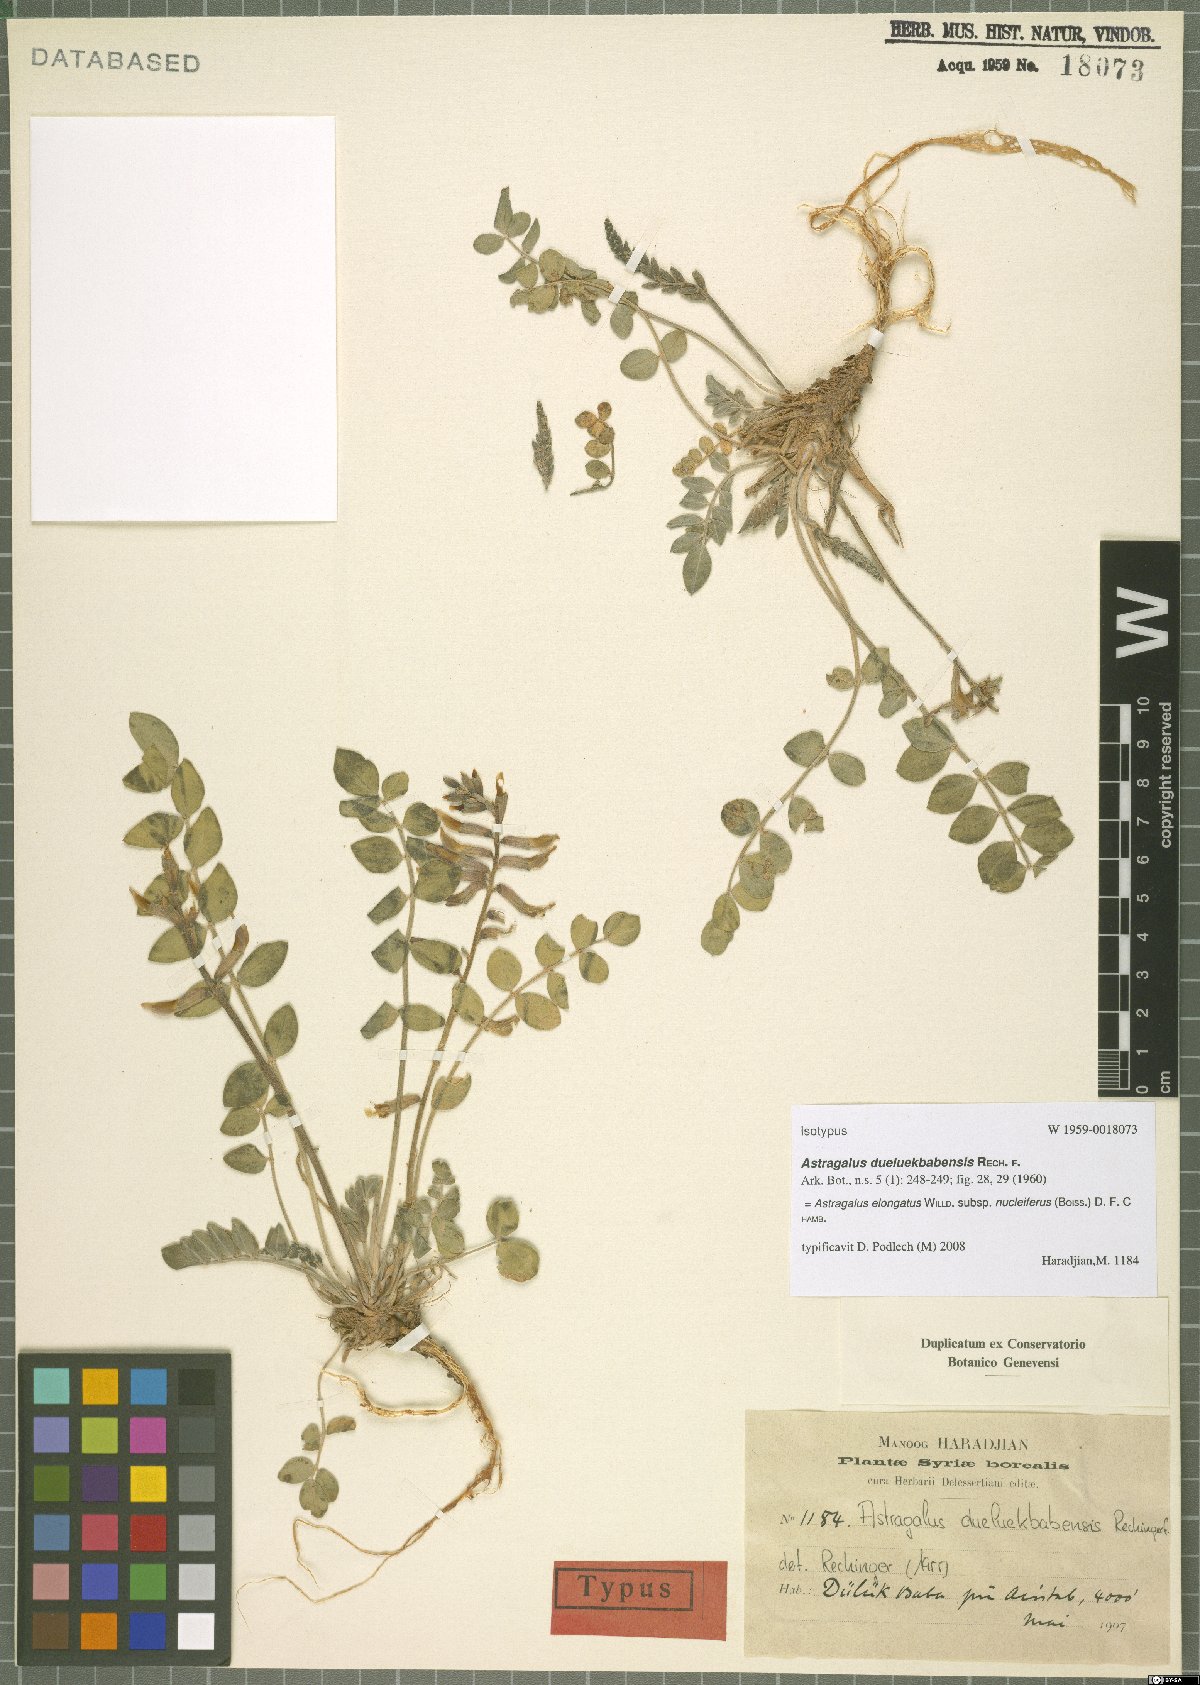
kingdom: Plantae
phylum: Tracheophyta
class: Magnoliopsida
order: Fabales
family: Fabaceae
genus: Astragalus
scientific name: Astragalus elongatus
